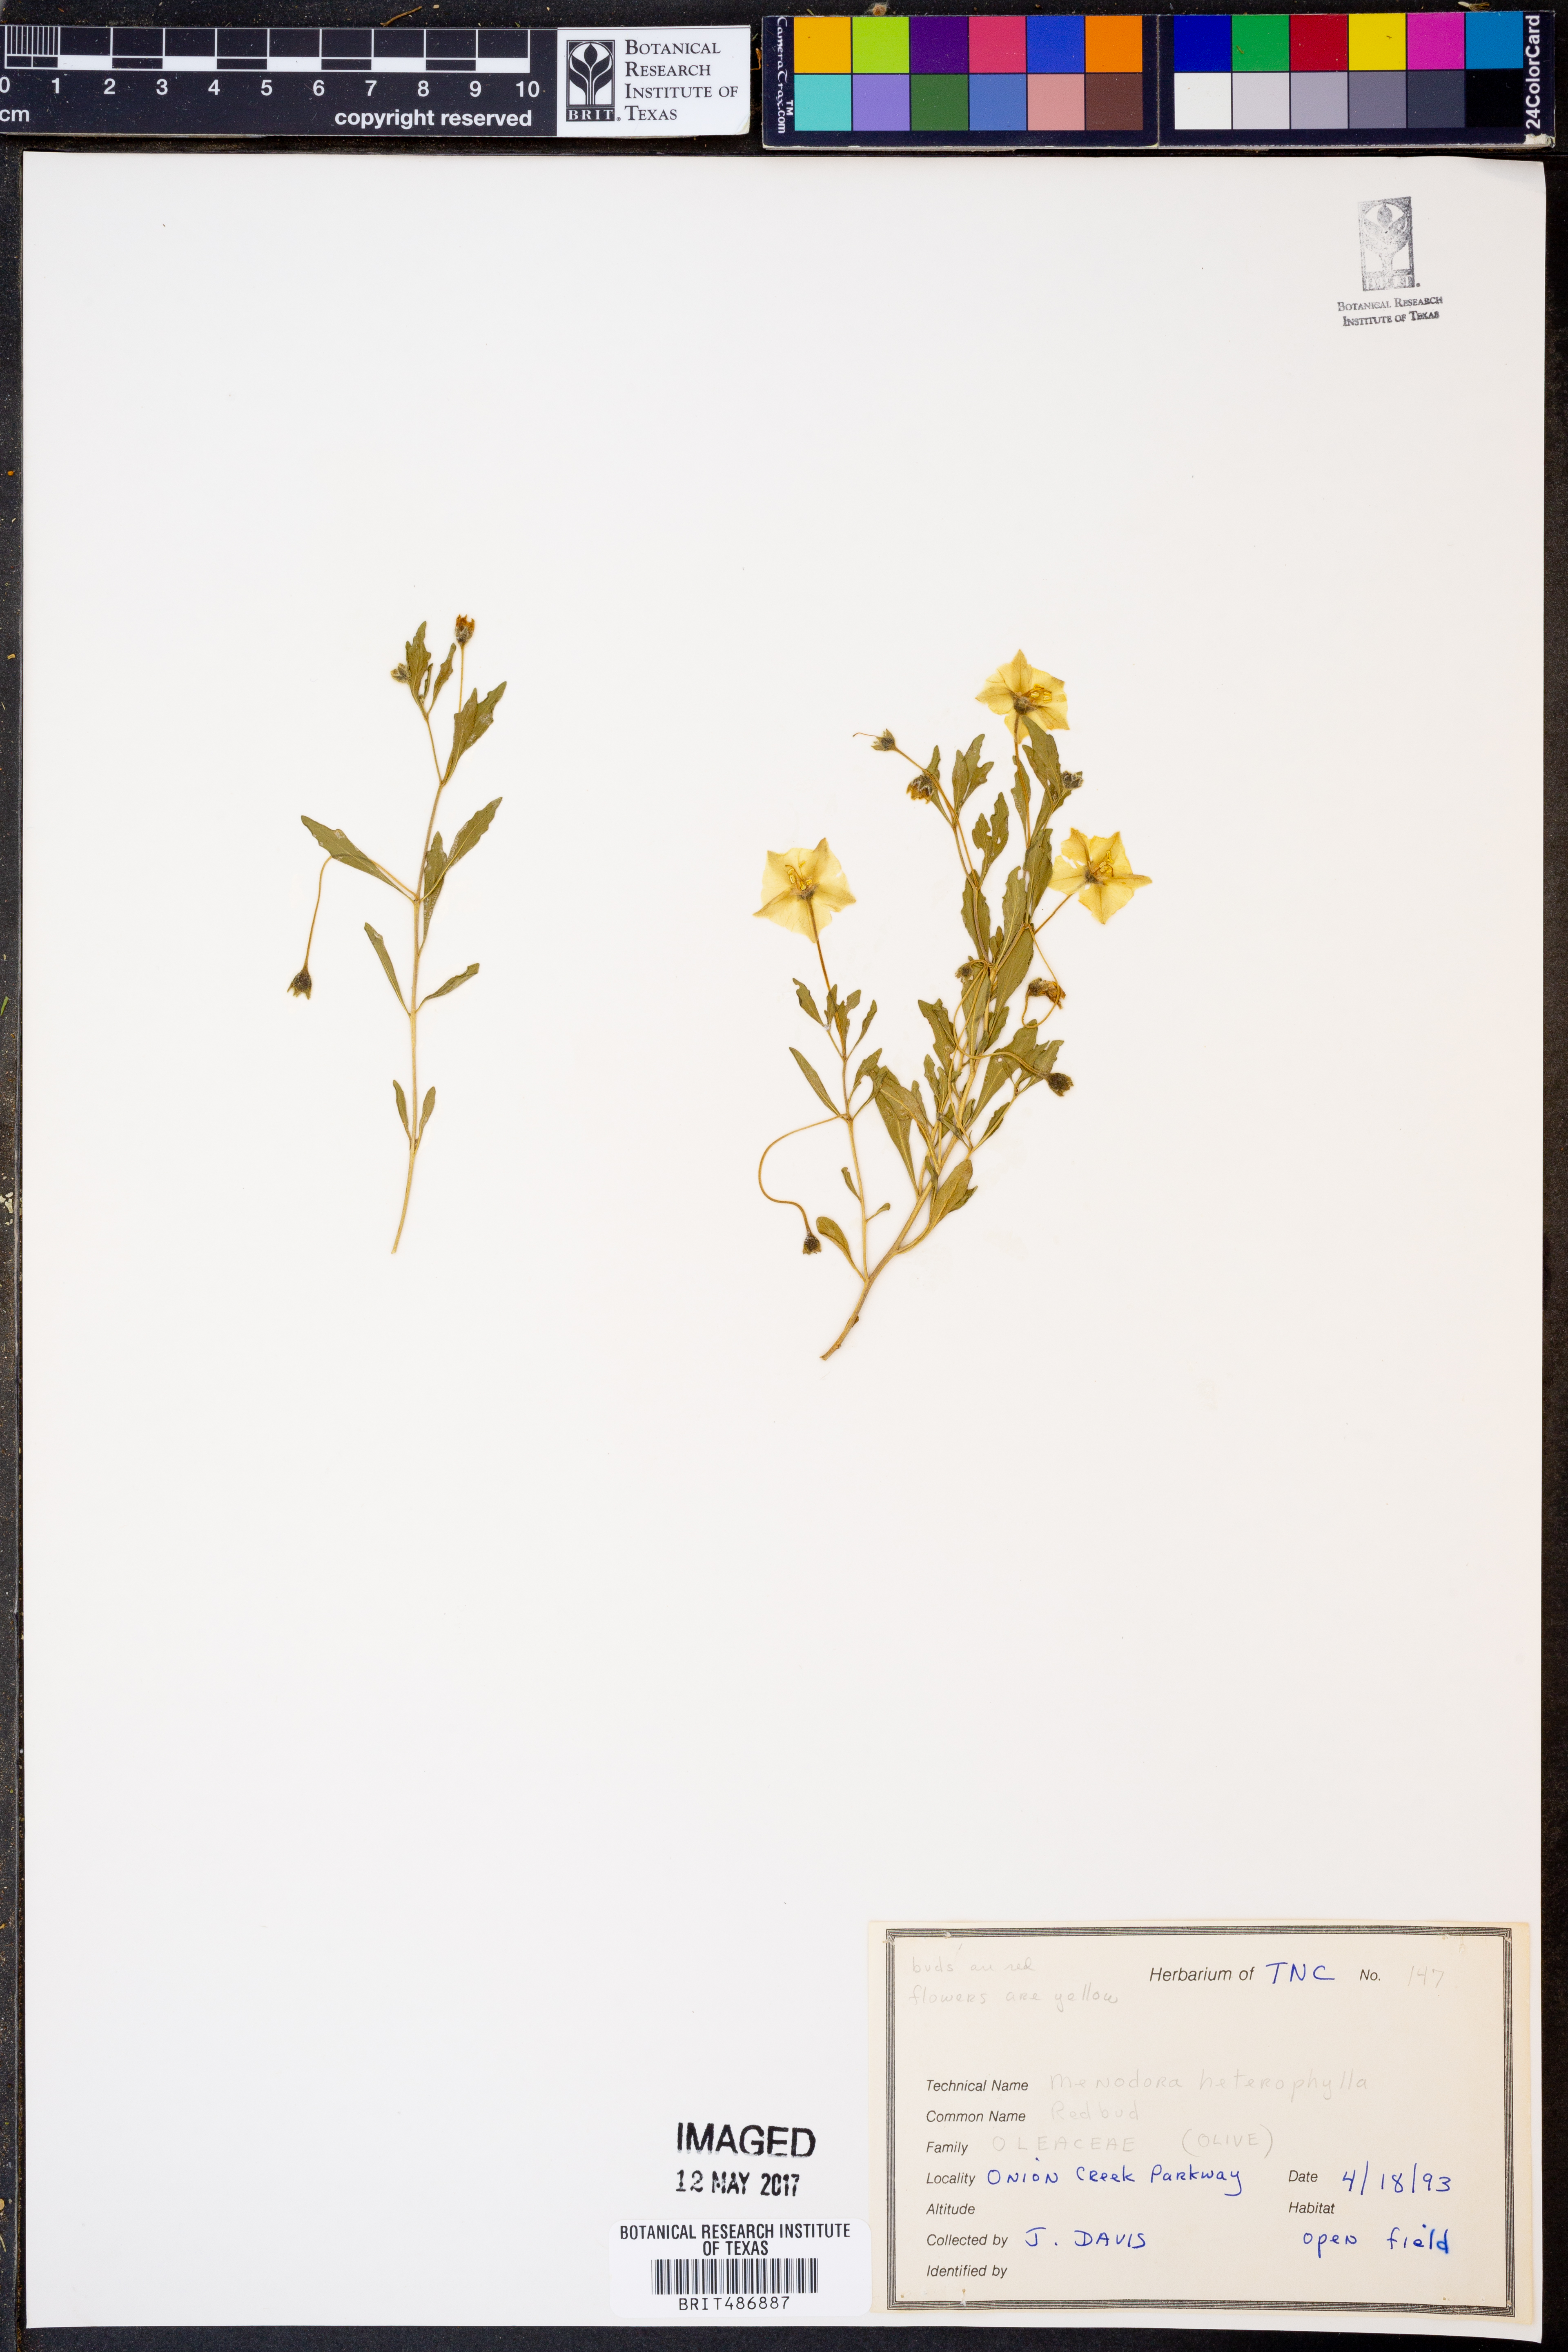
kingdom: Plantae
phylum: Tracheophyta
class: Magnoliopsida
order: Lamiales
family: Oleaceae
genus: Menodora
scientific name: Menodora heterophylla
